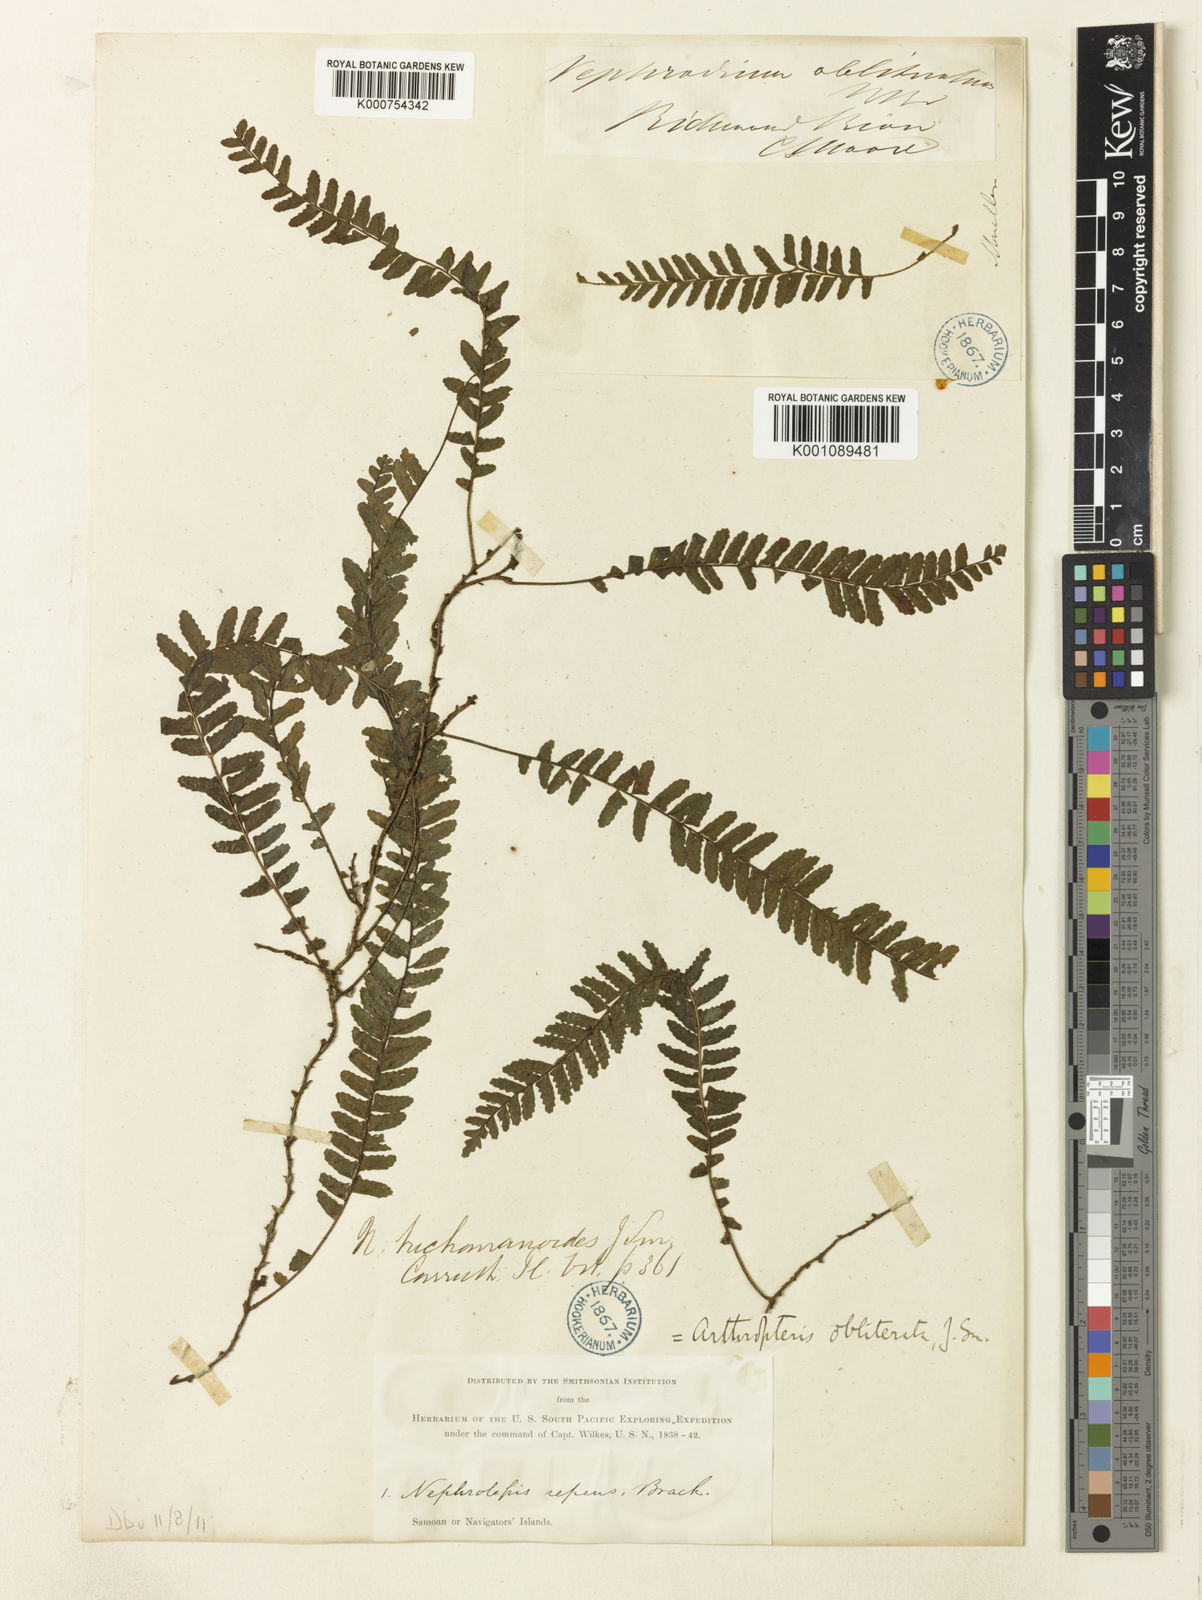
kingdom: Plantae
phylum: Tracheophyta
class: Polypodiopsida
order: Polypodiales
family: Tectariaceae
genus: Arthropteris
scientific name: Arthropteris palisotii
